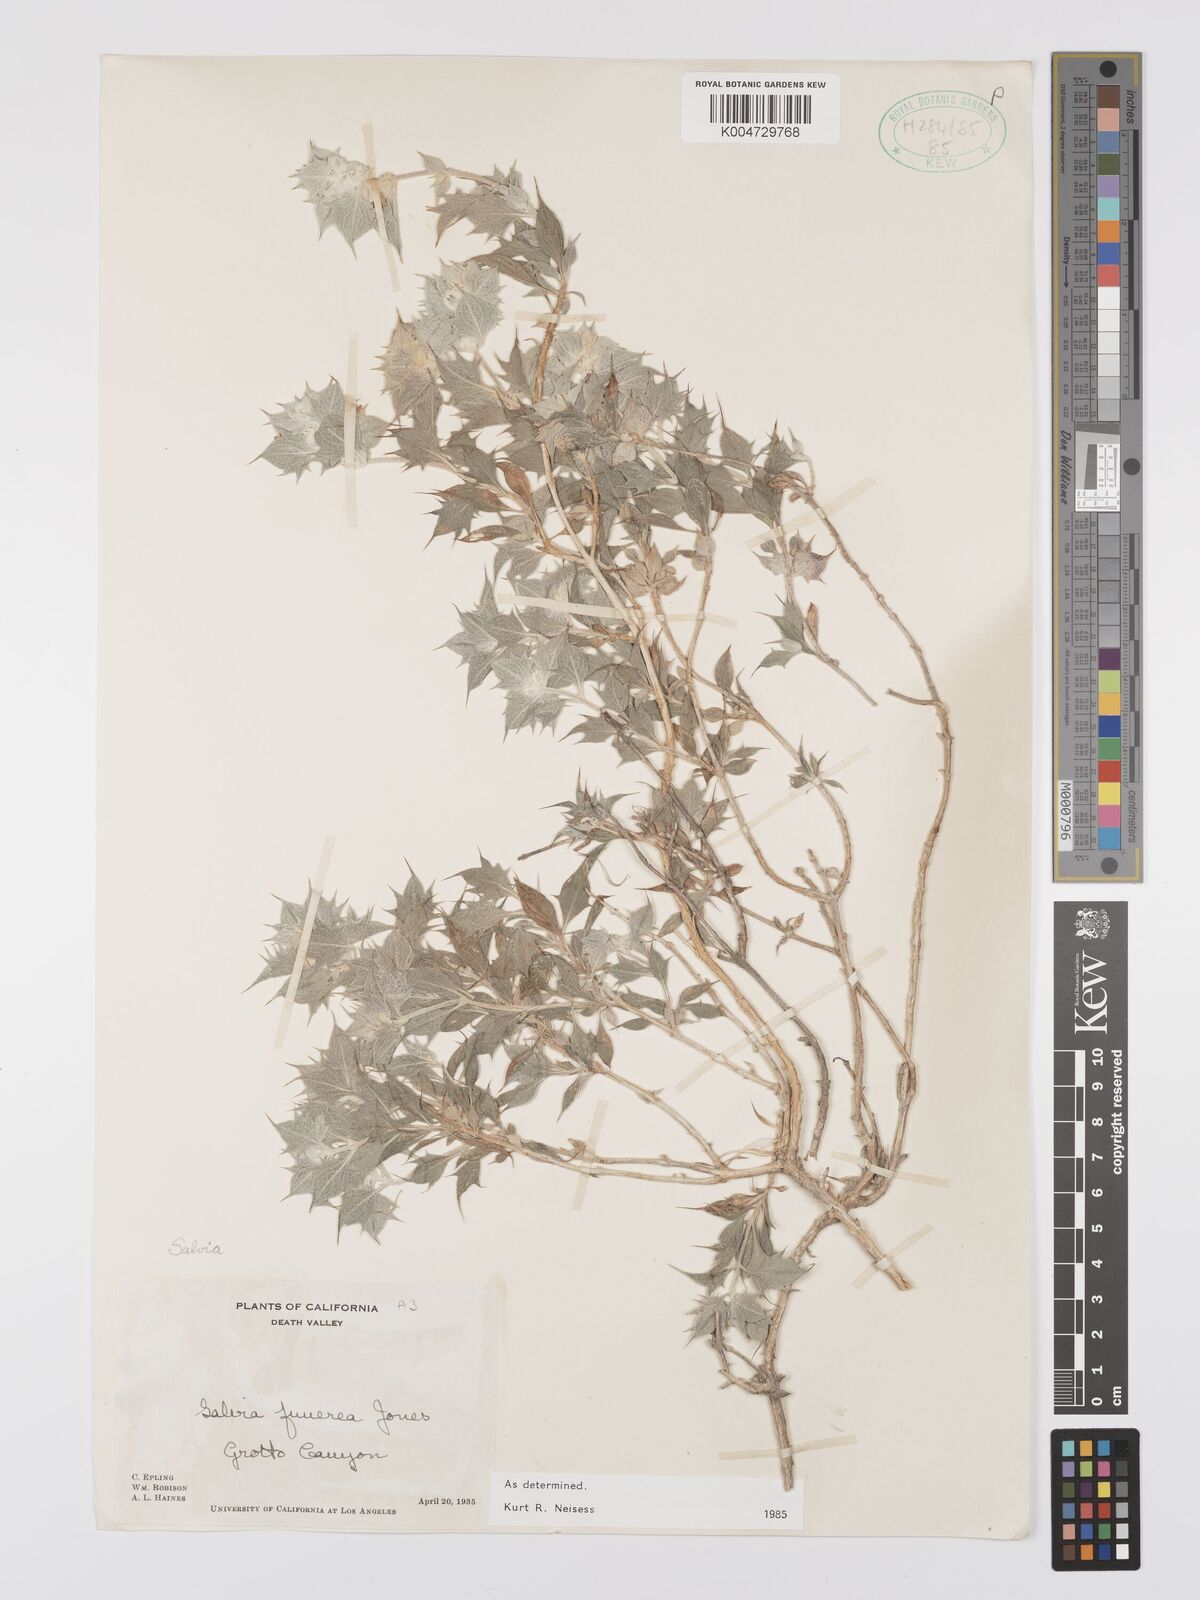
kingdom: Plantae
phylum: Tracheophyta
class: Magnoliopsida
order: Lamiales
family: Lamiaceae
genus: Salvia
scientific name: Salvia funerea
